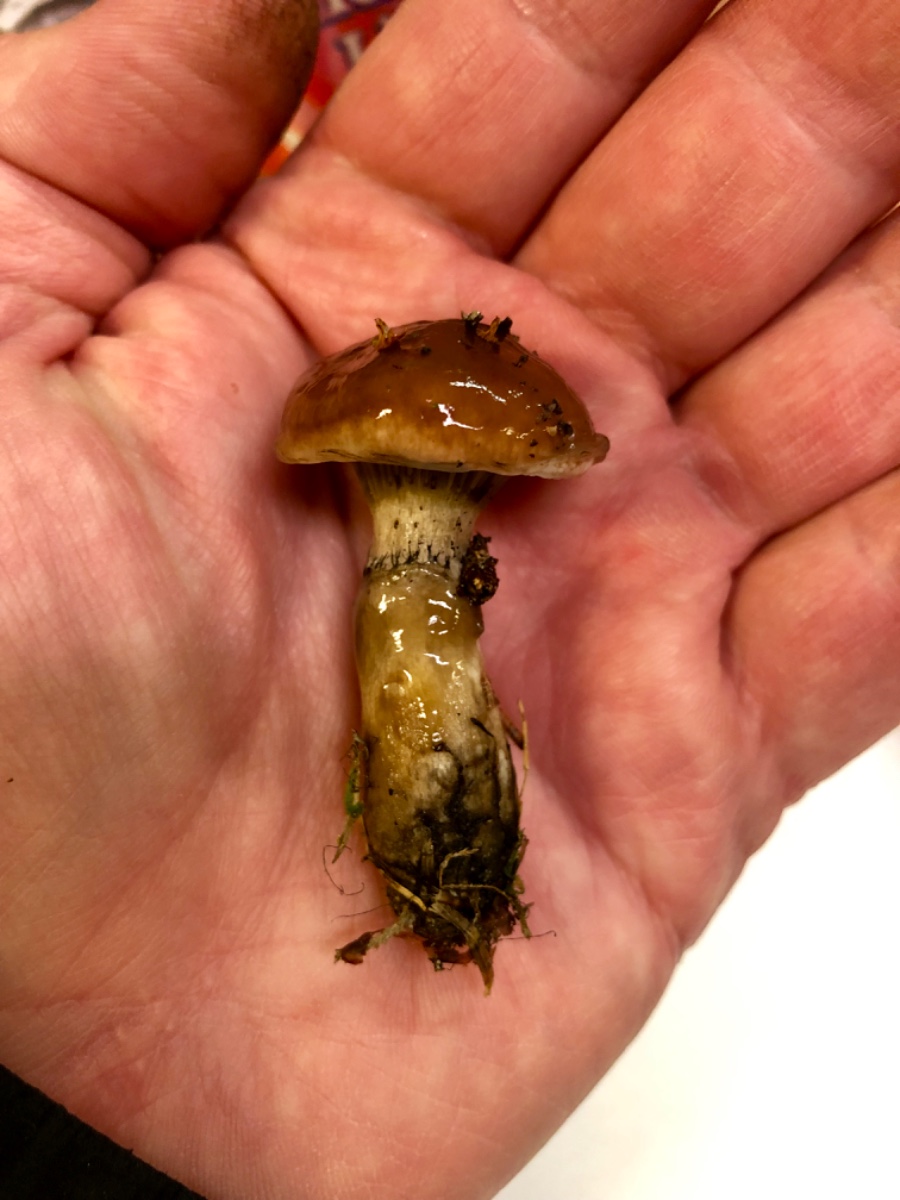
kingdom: Fungi
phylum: Basidiomycota
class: Agaricomycetes
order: Boletales
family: Gomphidiaceae
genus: Gomphidius
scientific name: Gomphidius
